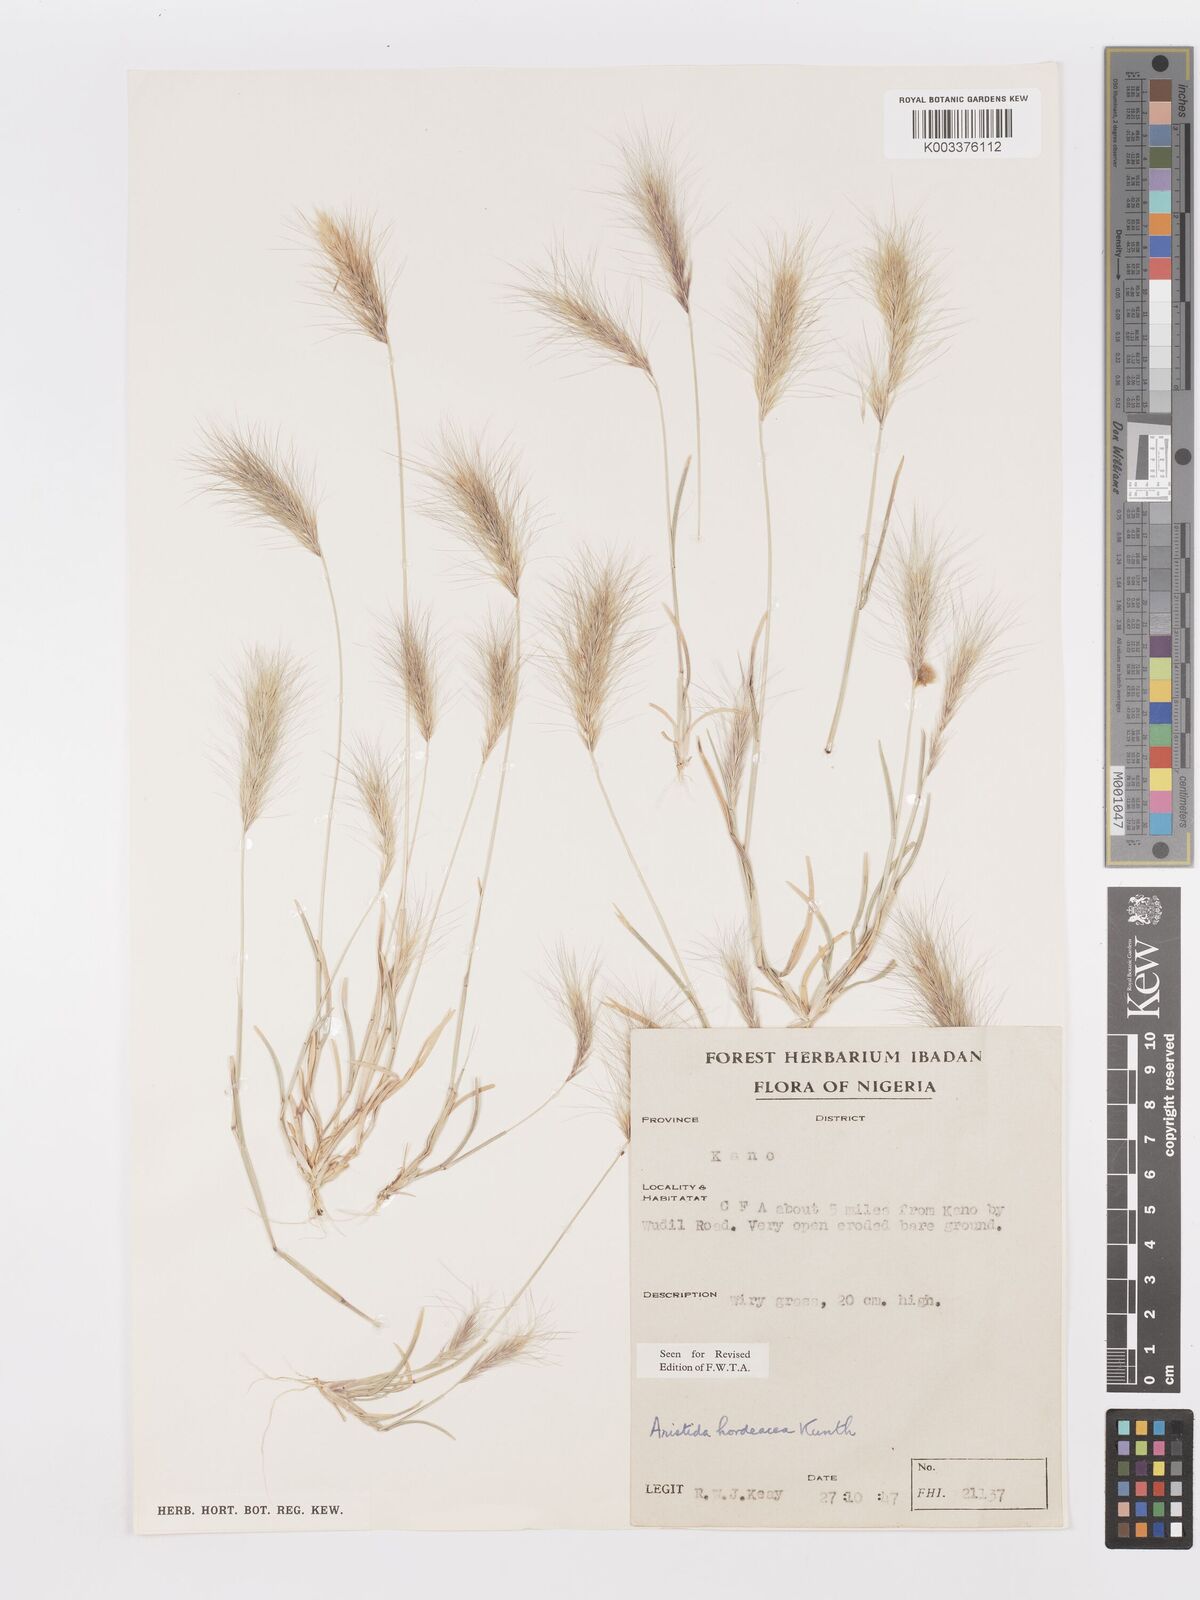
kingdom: Plantae
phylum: Tracheophyta
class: Liliopsida
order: Poales
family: Poaceae
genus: Aristida
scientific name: Aristida hordeacea
